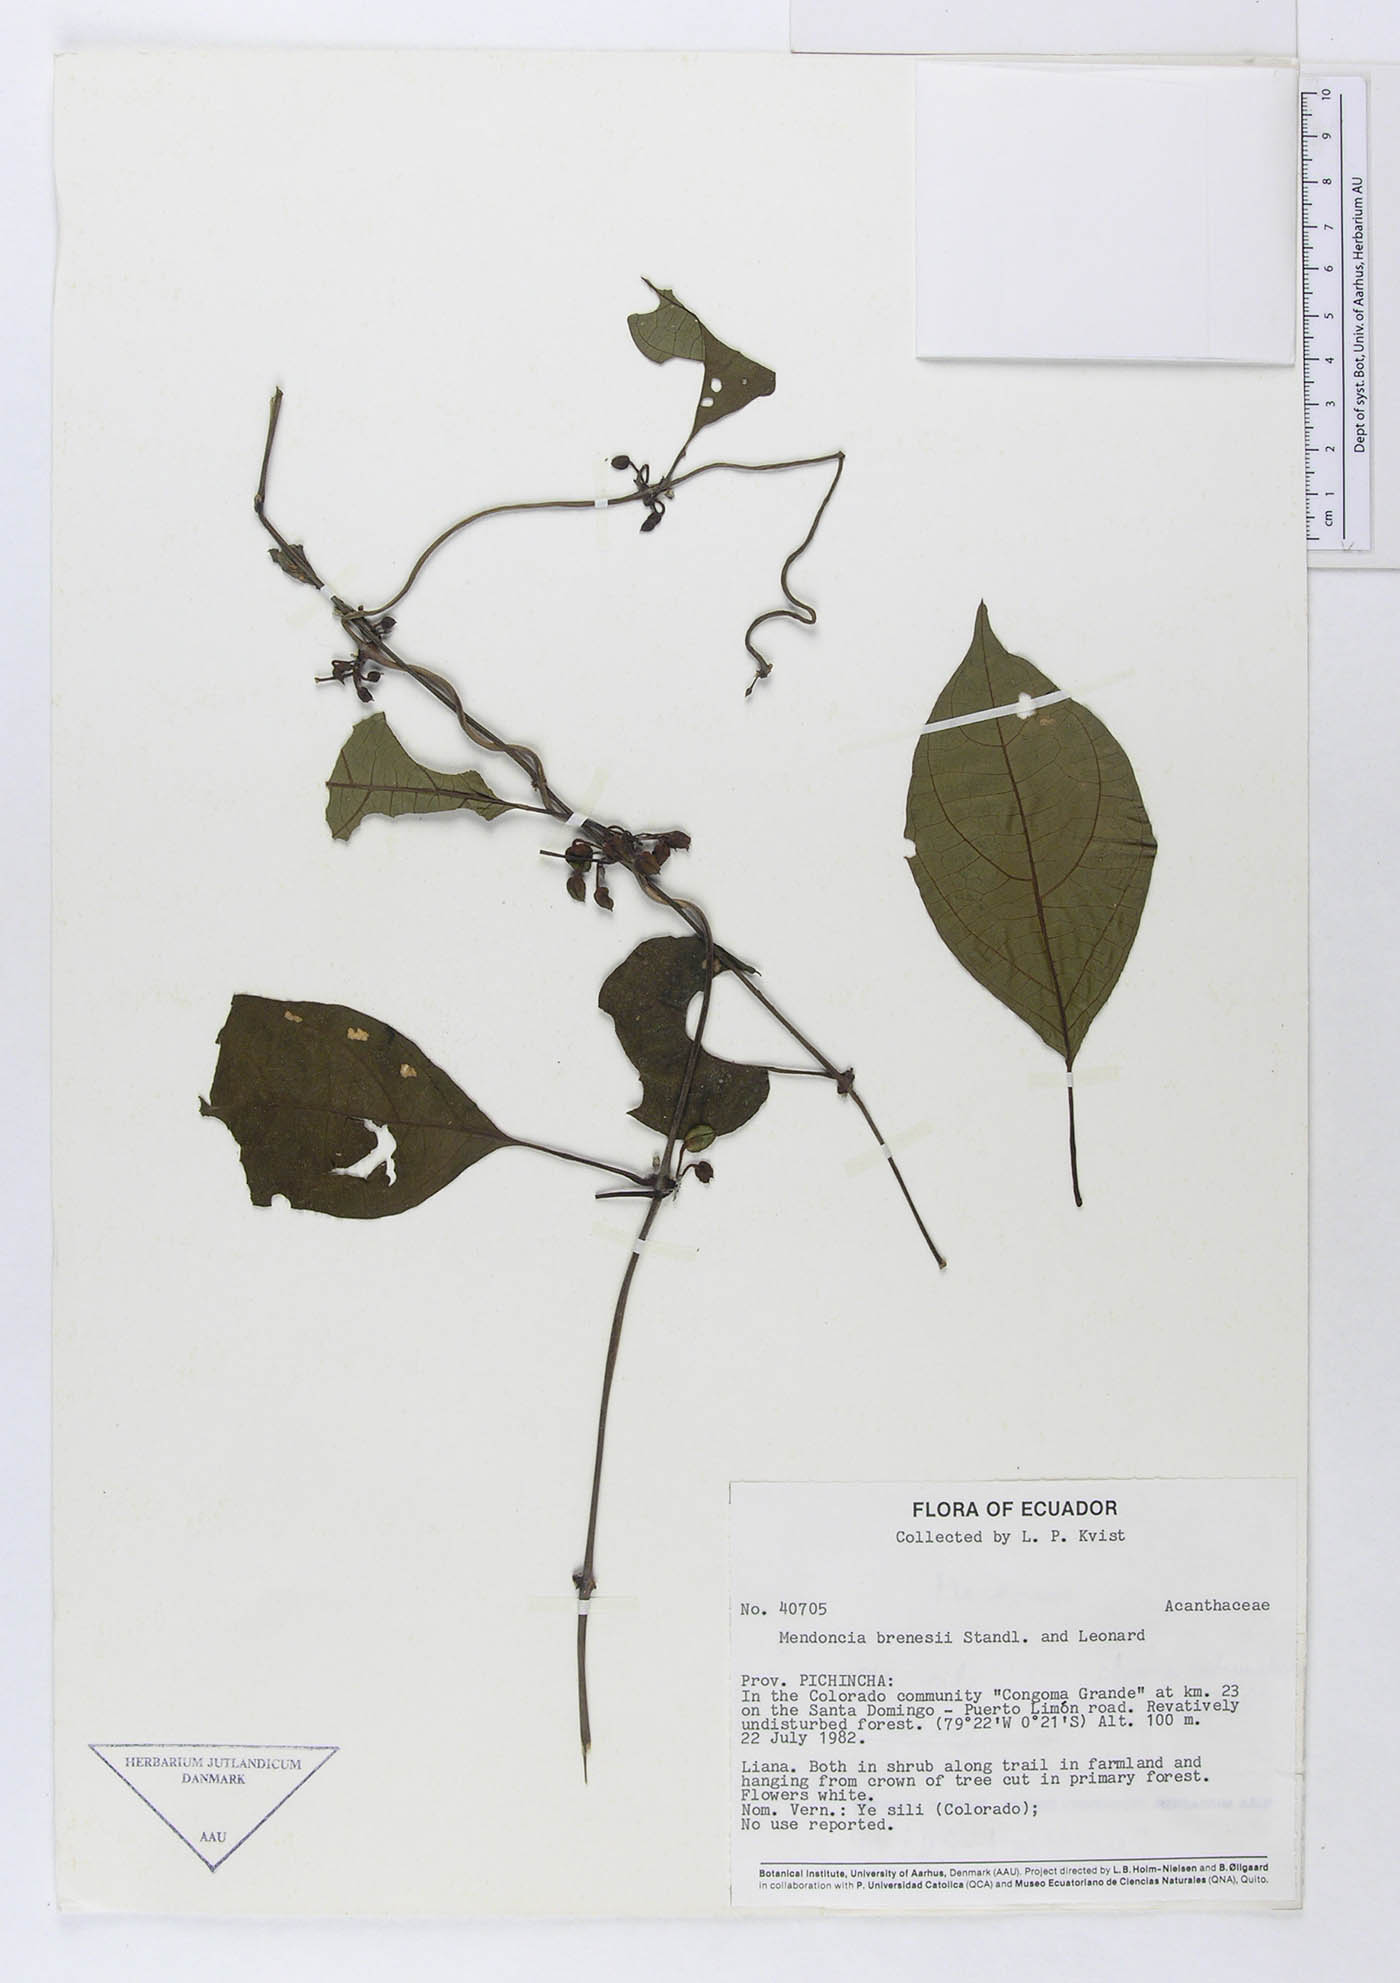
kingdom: Plantae
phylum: Tracheophyta
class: Magnoliopsida
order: Lamiales
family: Acanthaceae
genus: Mendoncia
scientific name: Mendoncia brenesii
